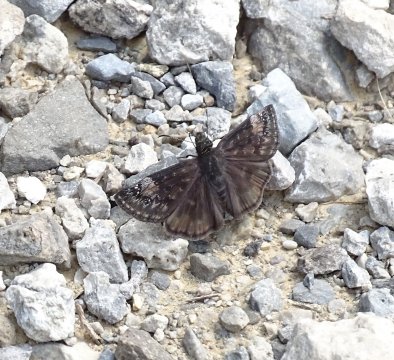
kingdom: Animalia
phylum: Arthropoda
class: Insecta
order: Lepidoptera
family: Hesperiidae
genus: Gesta
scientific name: Gesta
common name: Wild Indigo Duskywing
